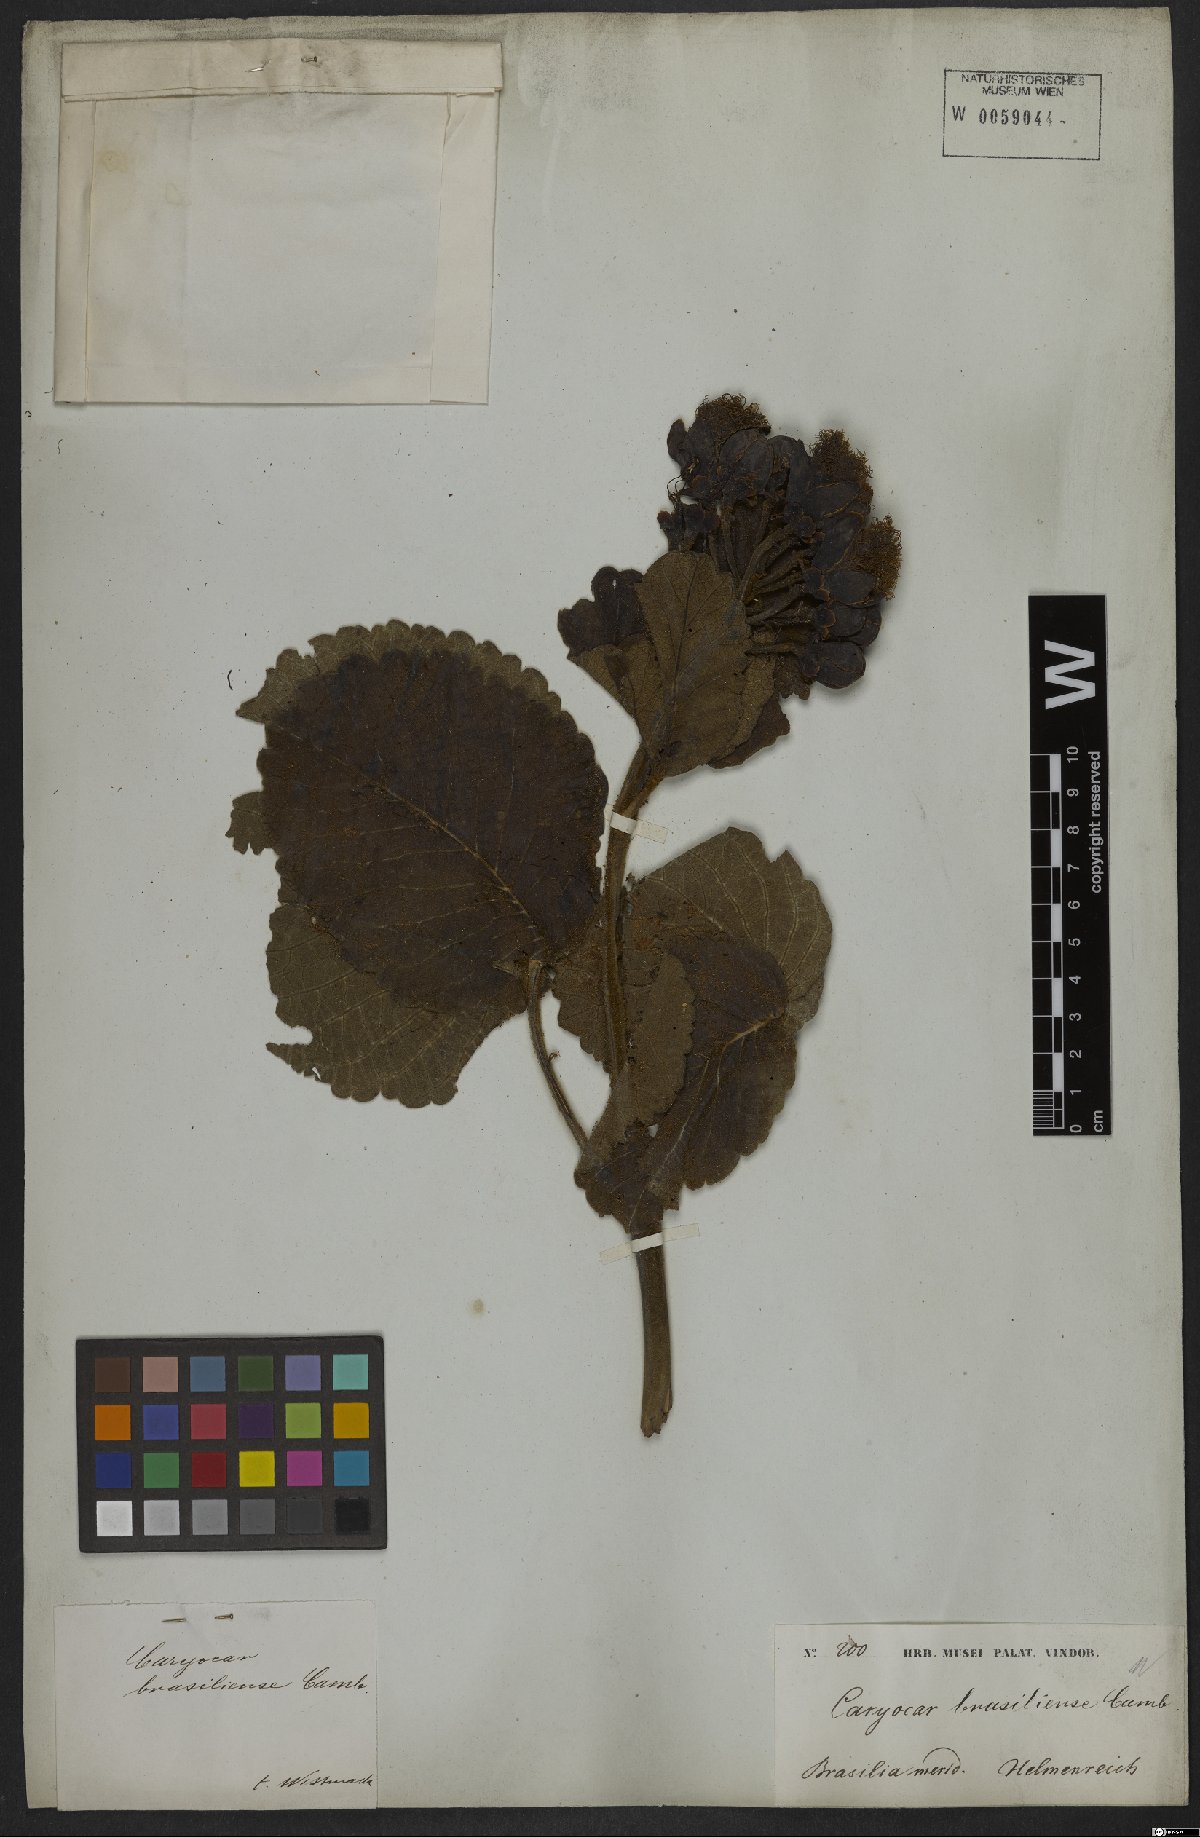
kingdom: Plantae
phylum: Tracheophyta
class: Magnoliopsida
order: Malpighiales
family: Caryocaraceae
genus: Caryocar
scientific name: Caryocar brasiliense
